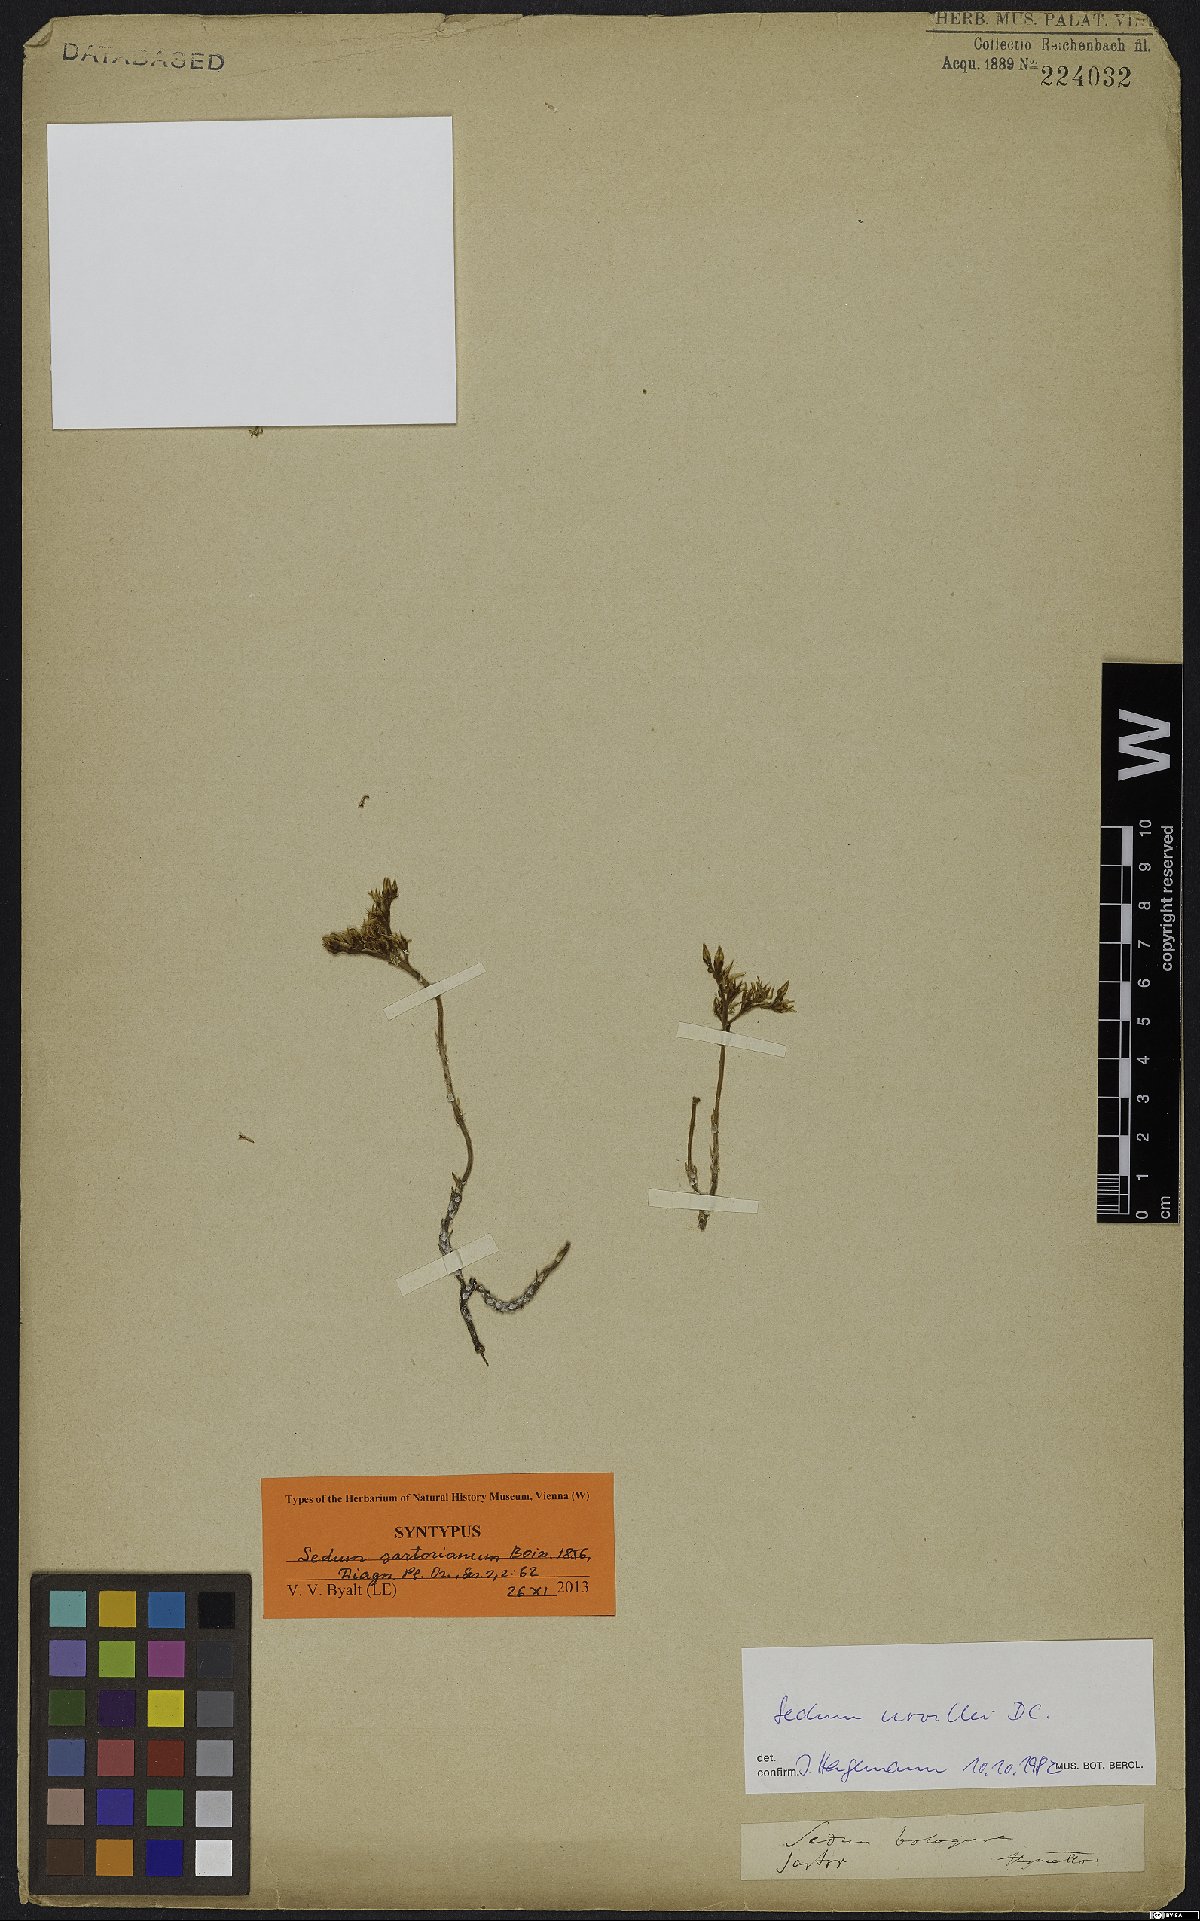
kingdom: Plantae
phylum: Tracheophyta
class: Magnoliopsida
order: Saxifragales
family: Crassulaceae
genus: Sedum
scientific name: Sedum urvillei
